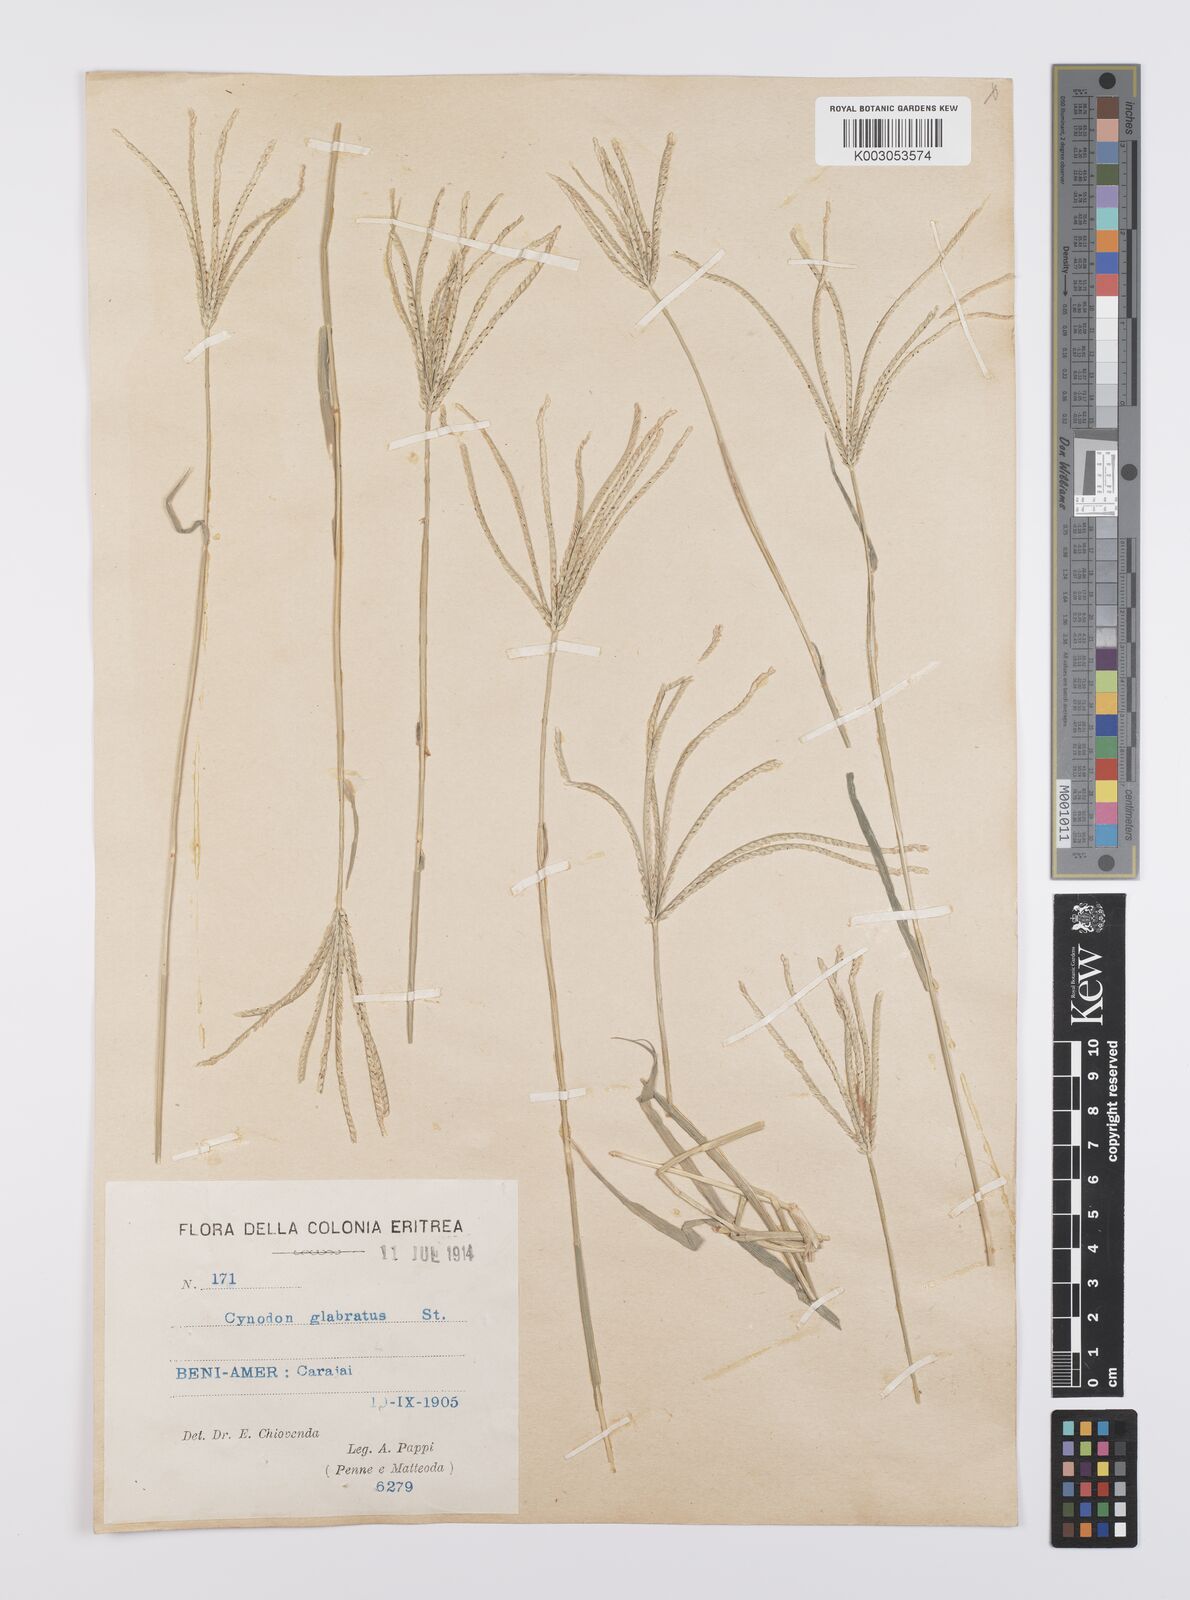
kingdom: Plantae
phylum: Tracheophyta
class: Liliopsida
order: Poales
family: Poaceae
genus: Cynodon
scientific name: Cynodon dactylon
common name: Bermuda grass
